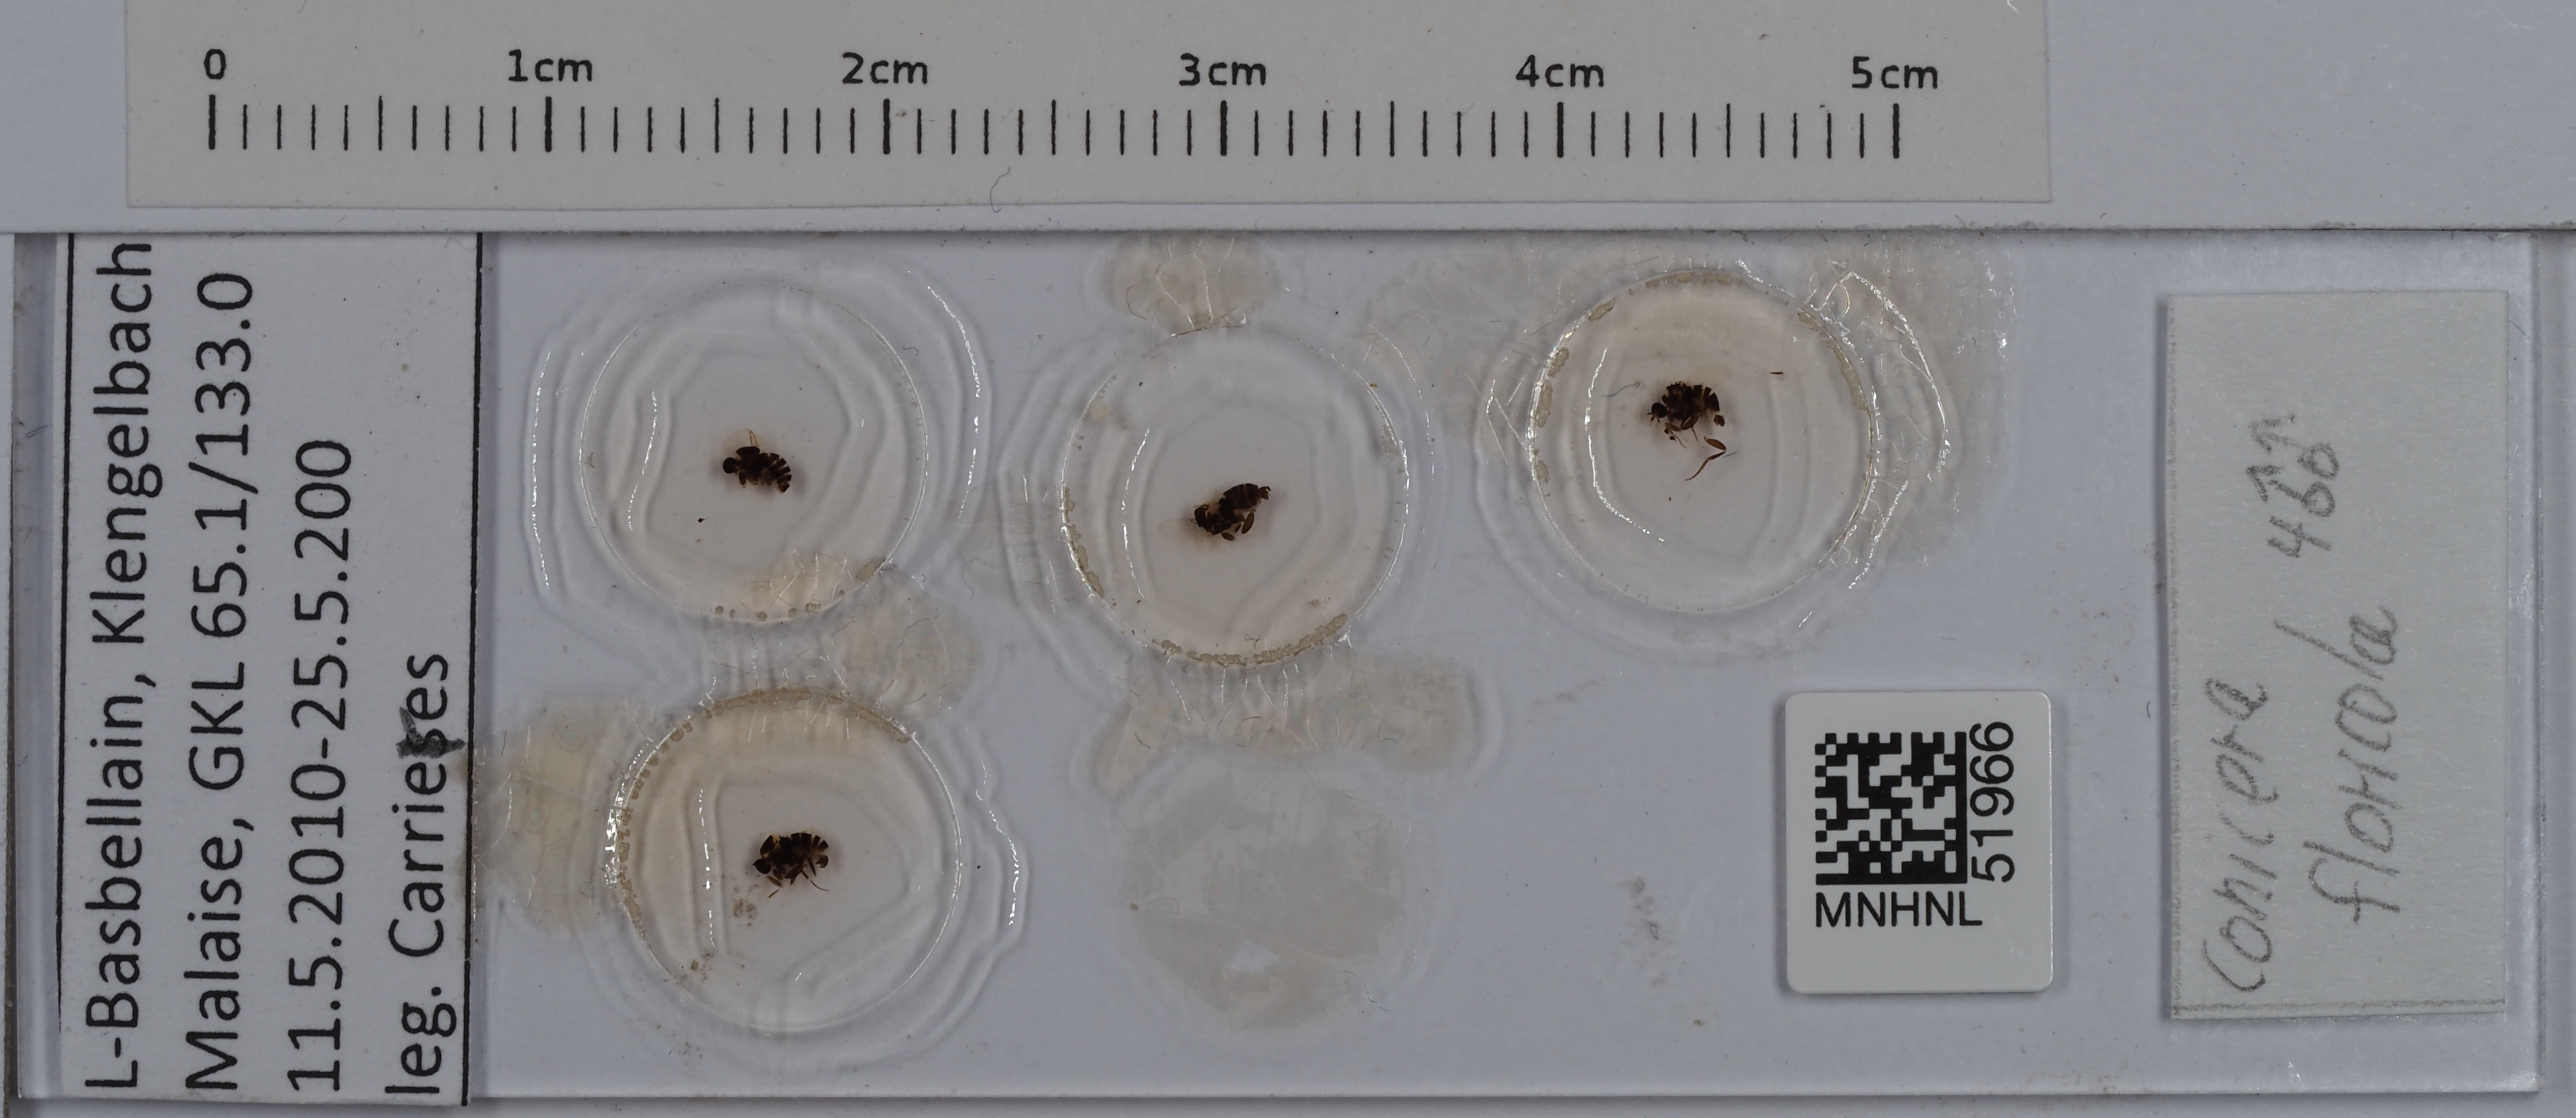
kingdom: Animalia
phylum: Arthropoda
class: Insecta
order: Diptera
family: Phoridae
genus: Conicera
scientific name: Conicera floricola
